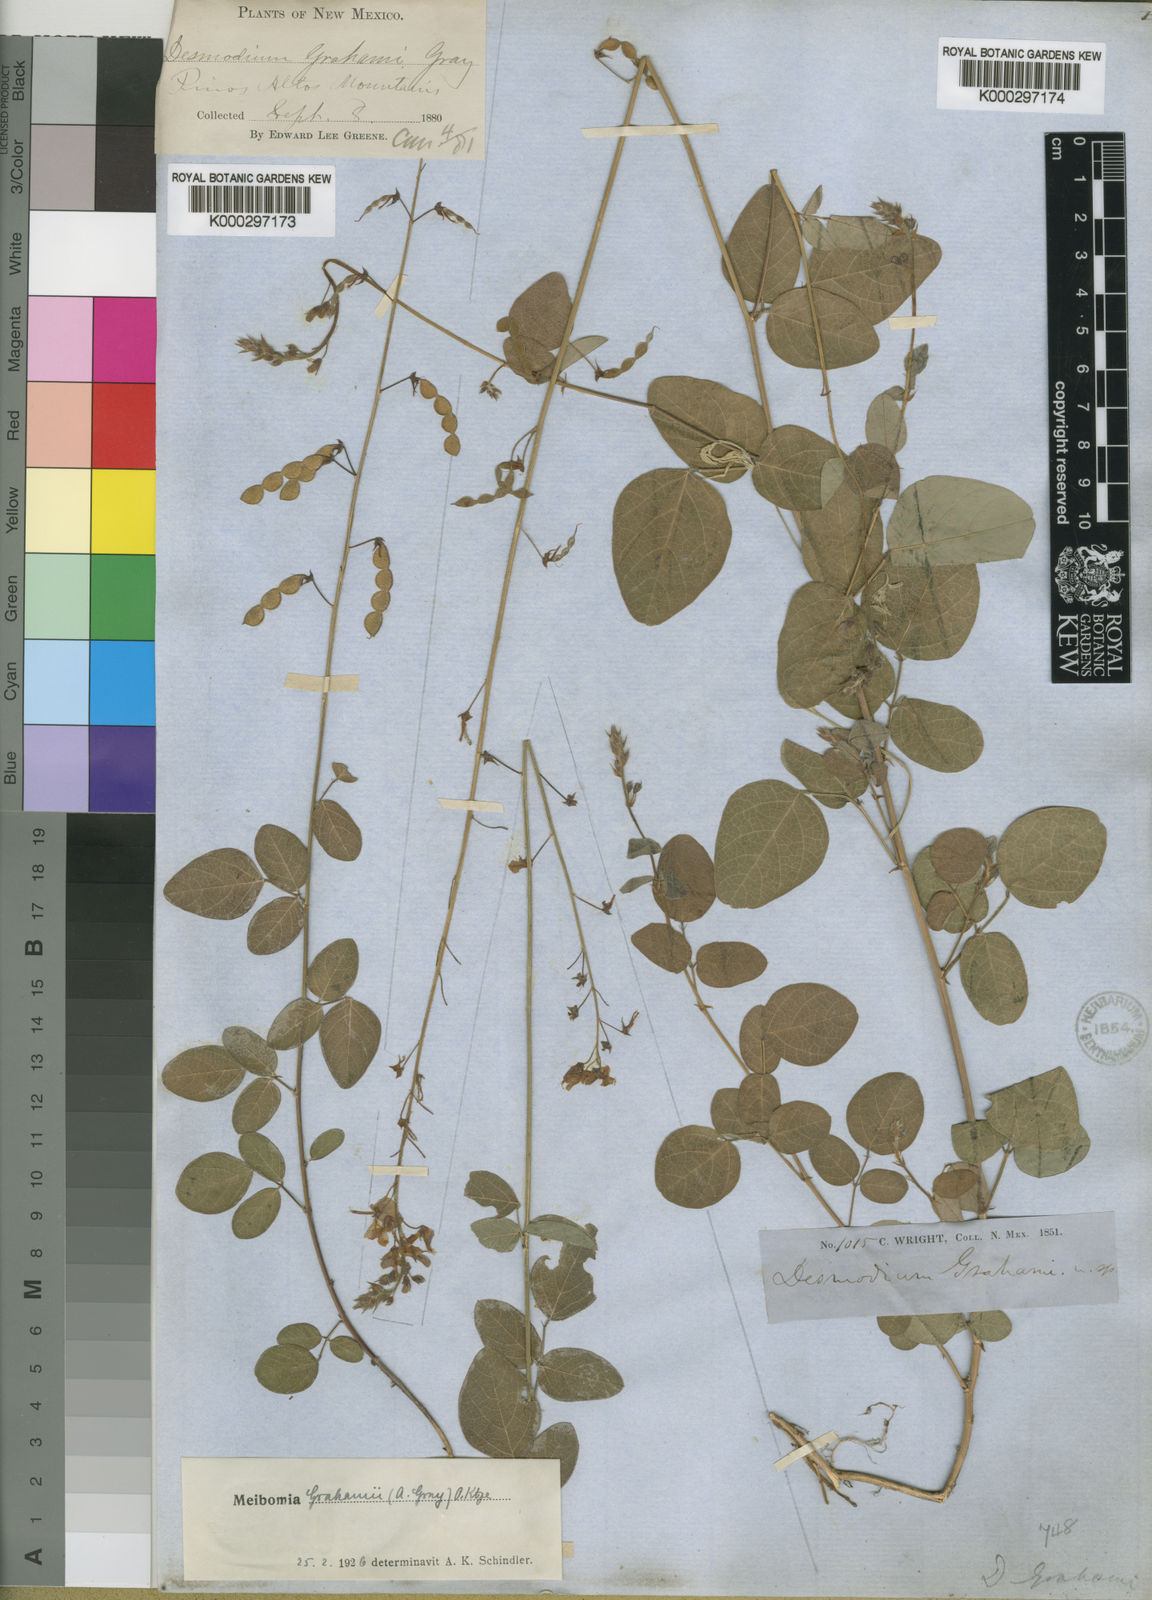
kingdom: Plantae
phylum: Tracheophyta
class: Magnoliopsida
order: Fabales
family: Fabaceae
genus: Desmodium
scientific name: Desmodium grahamii
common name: Graham's tick-trefoil
